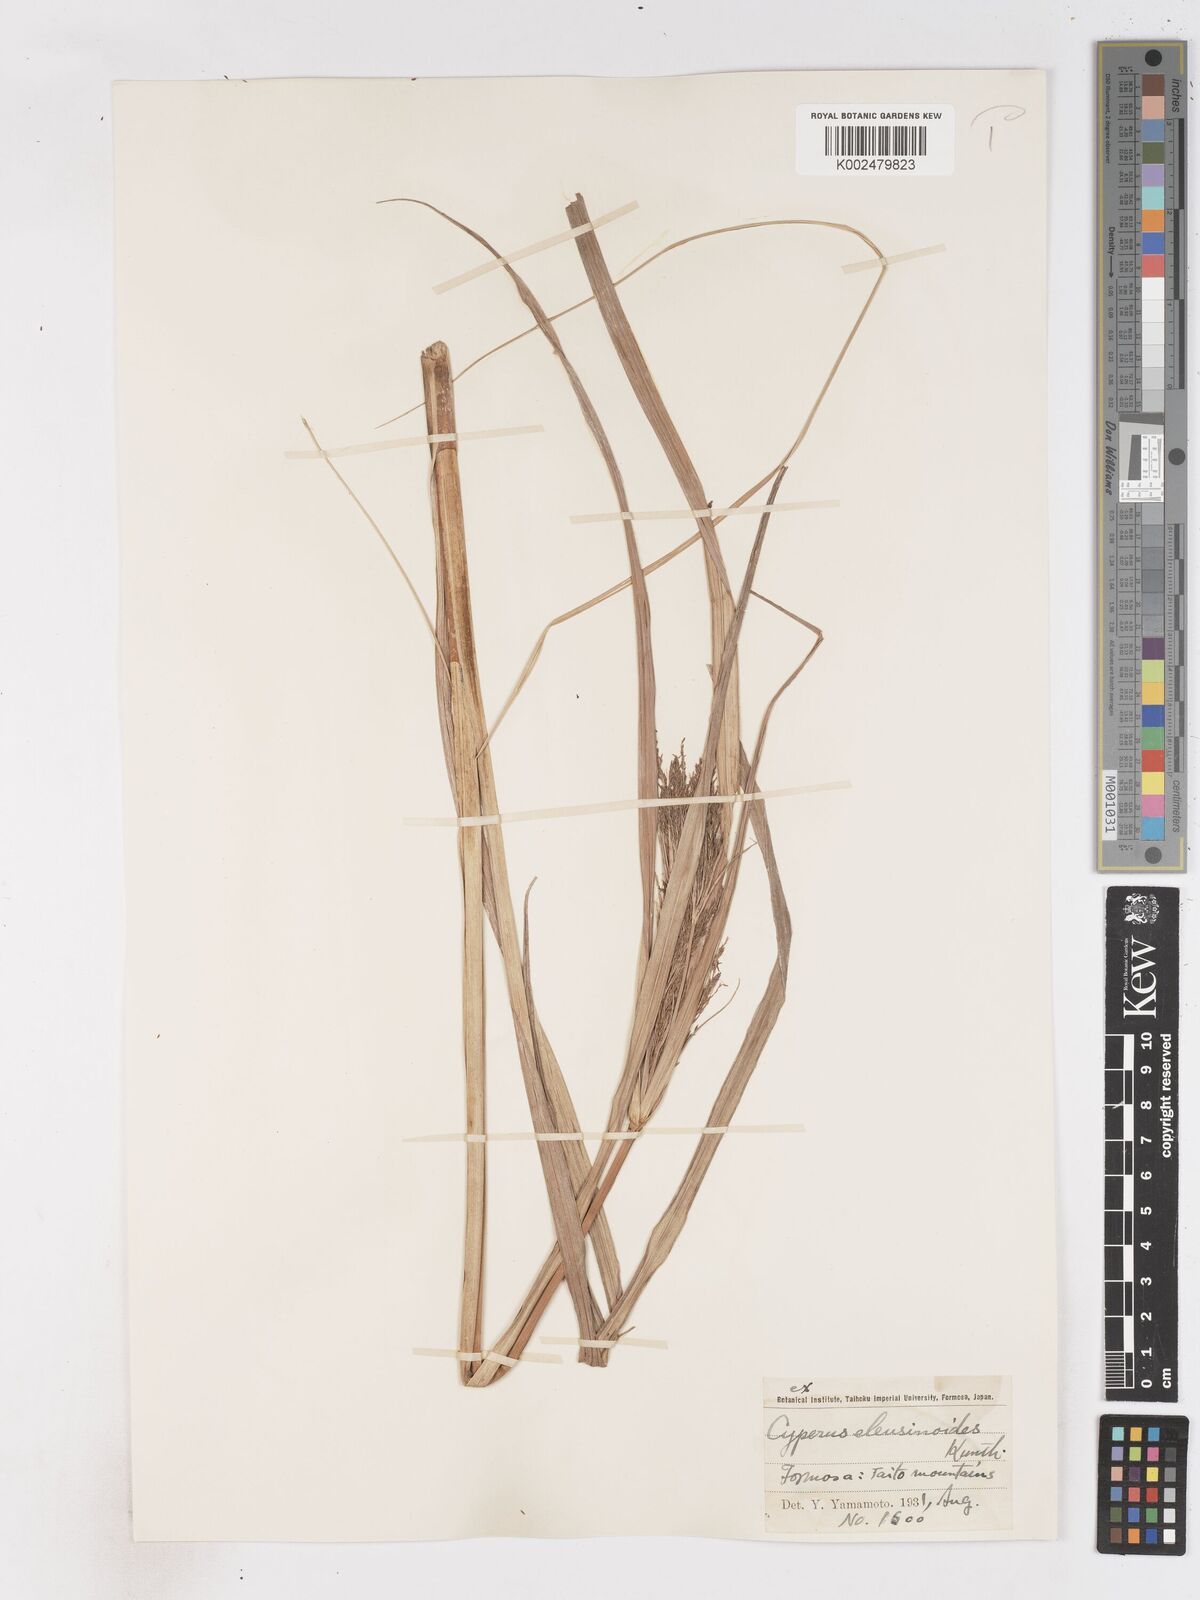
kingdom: Plantae
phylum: Tracheophyta
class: Liliopsida
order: Poales
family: Cyperaceae
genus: Cyperus
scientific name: Cyperus nutans
